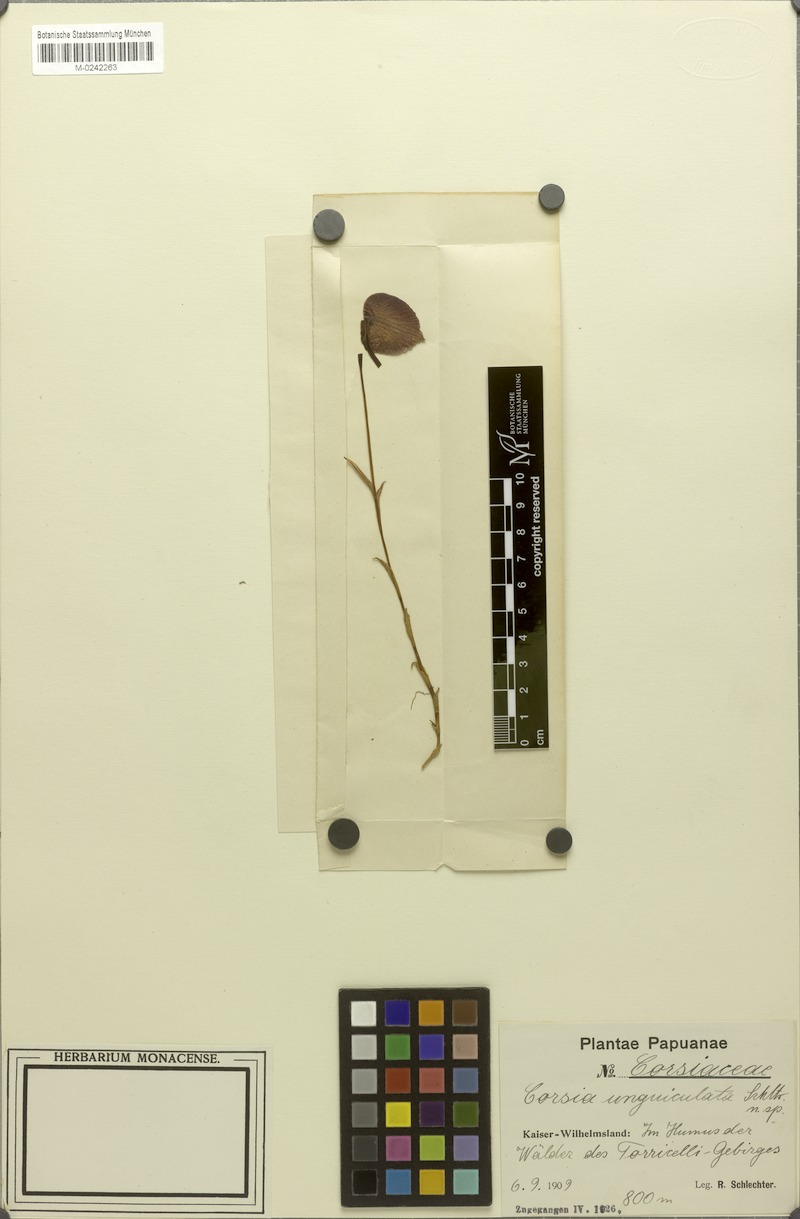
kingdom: Plantae
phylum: Tracheophyta
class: Liliopsida
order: Liliales
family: Corsiaceae
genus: Corsia
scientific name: Corsia unguiculata
